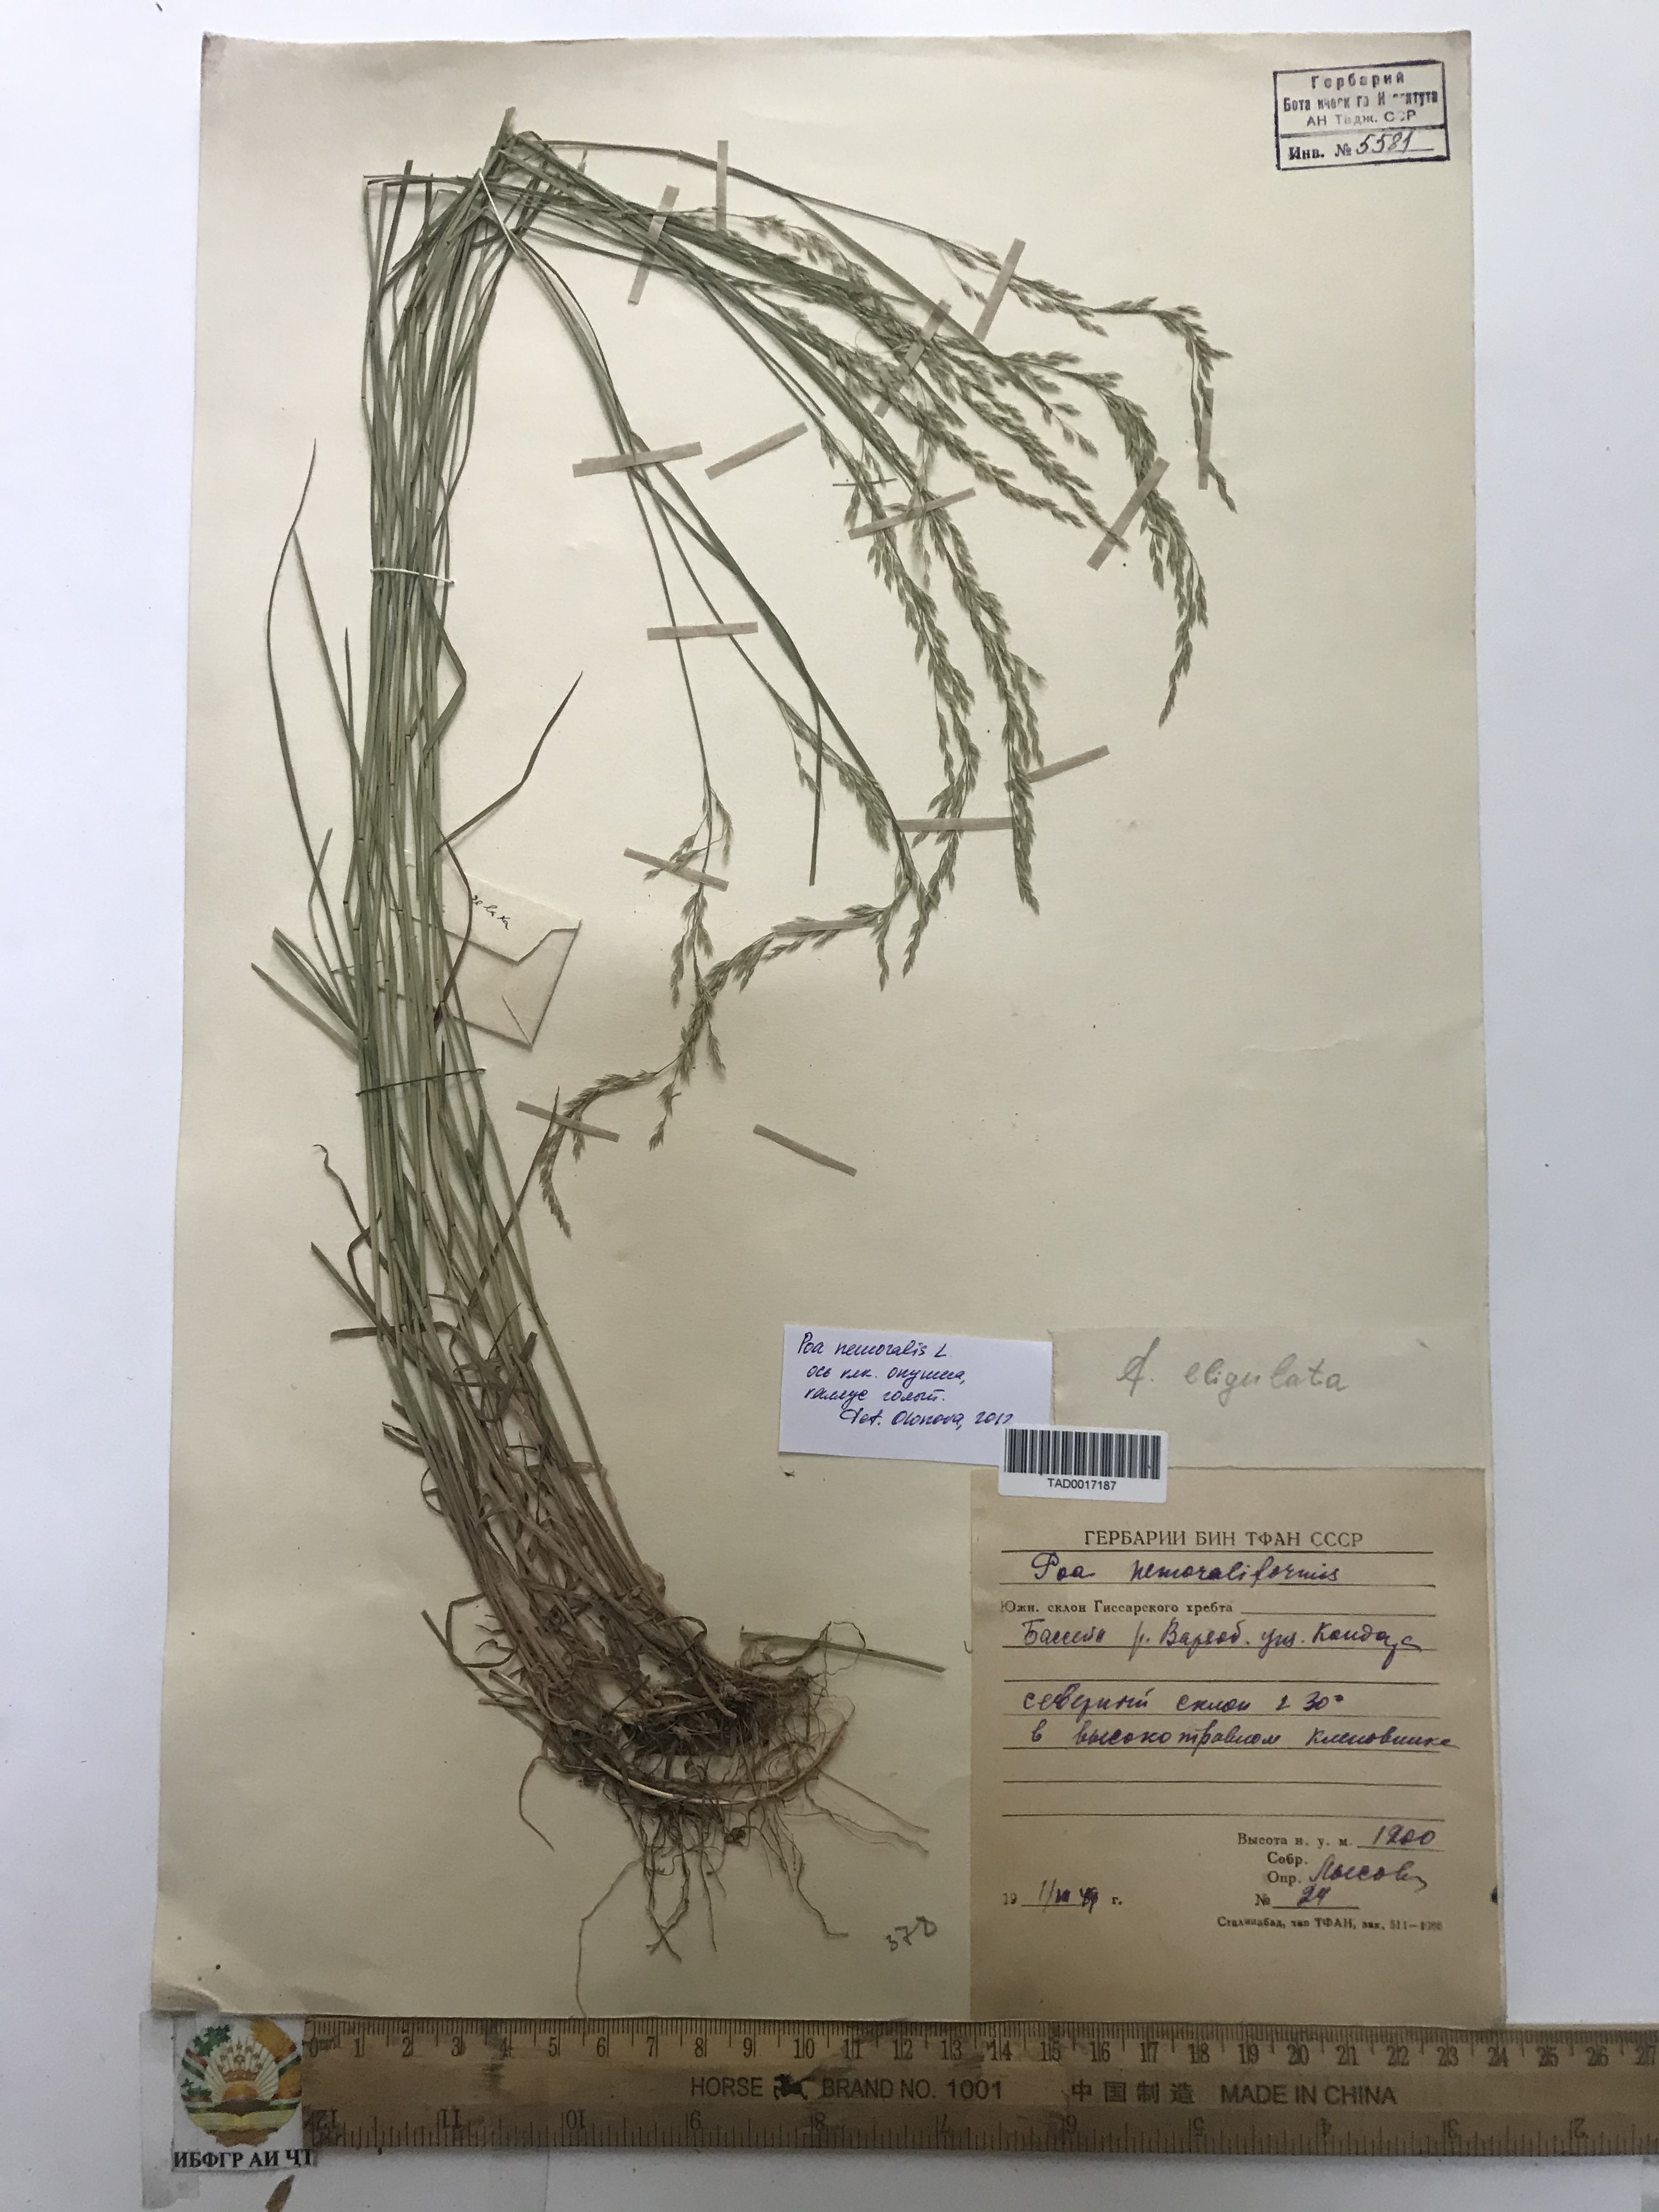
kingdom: Plantae
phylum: Tracheophyta
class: Liliopsida
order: Poales
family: Poaceae
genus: Poa
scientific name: Poa urssulensis
